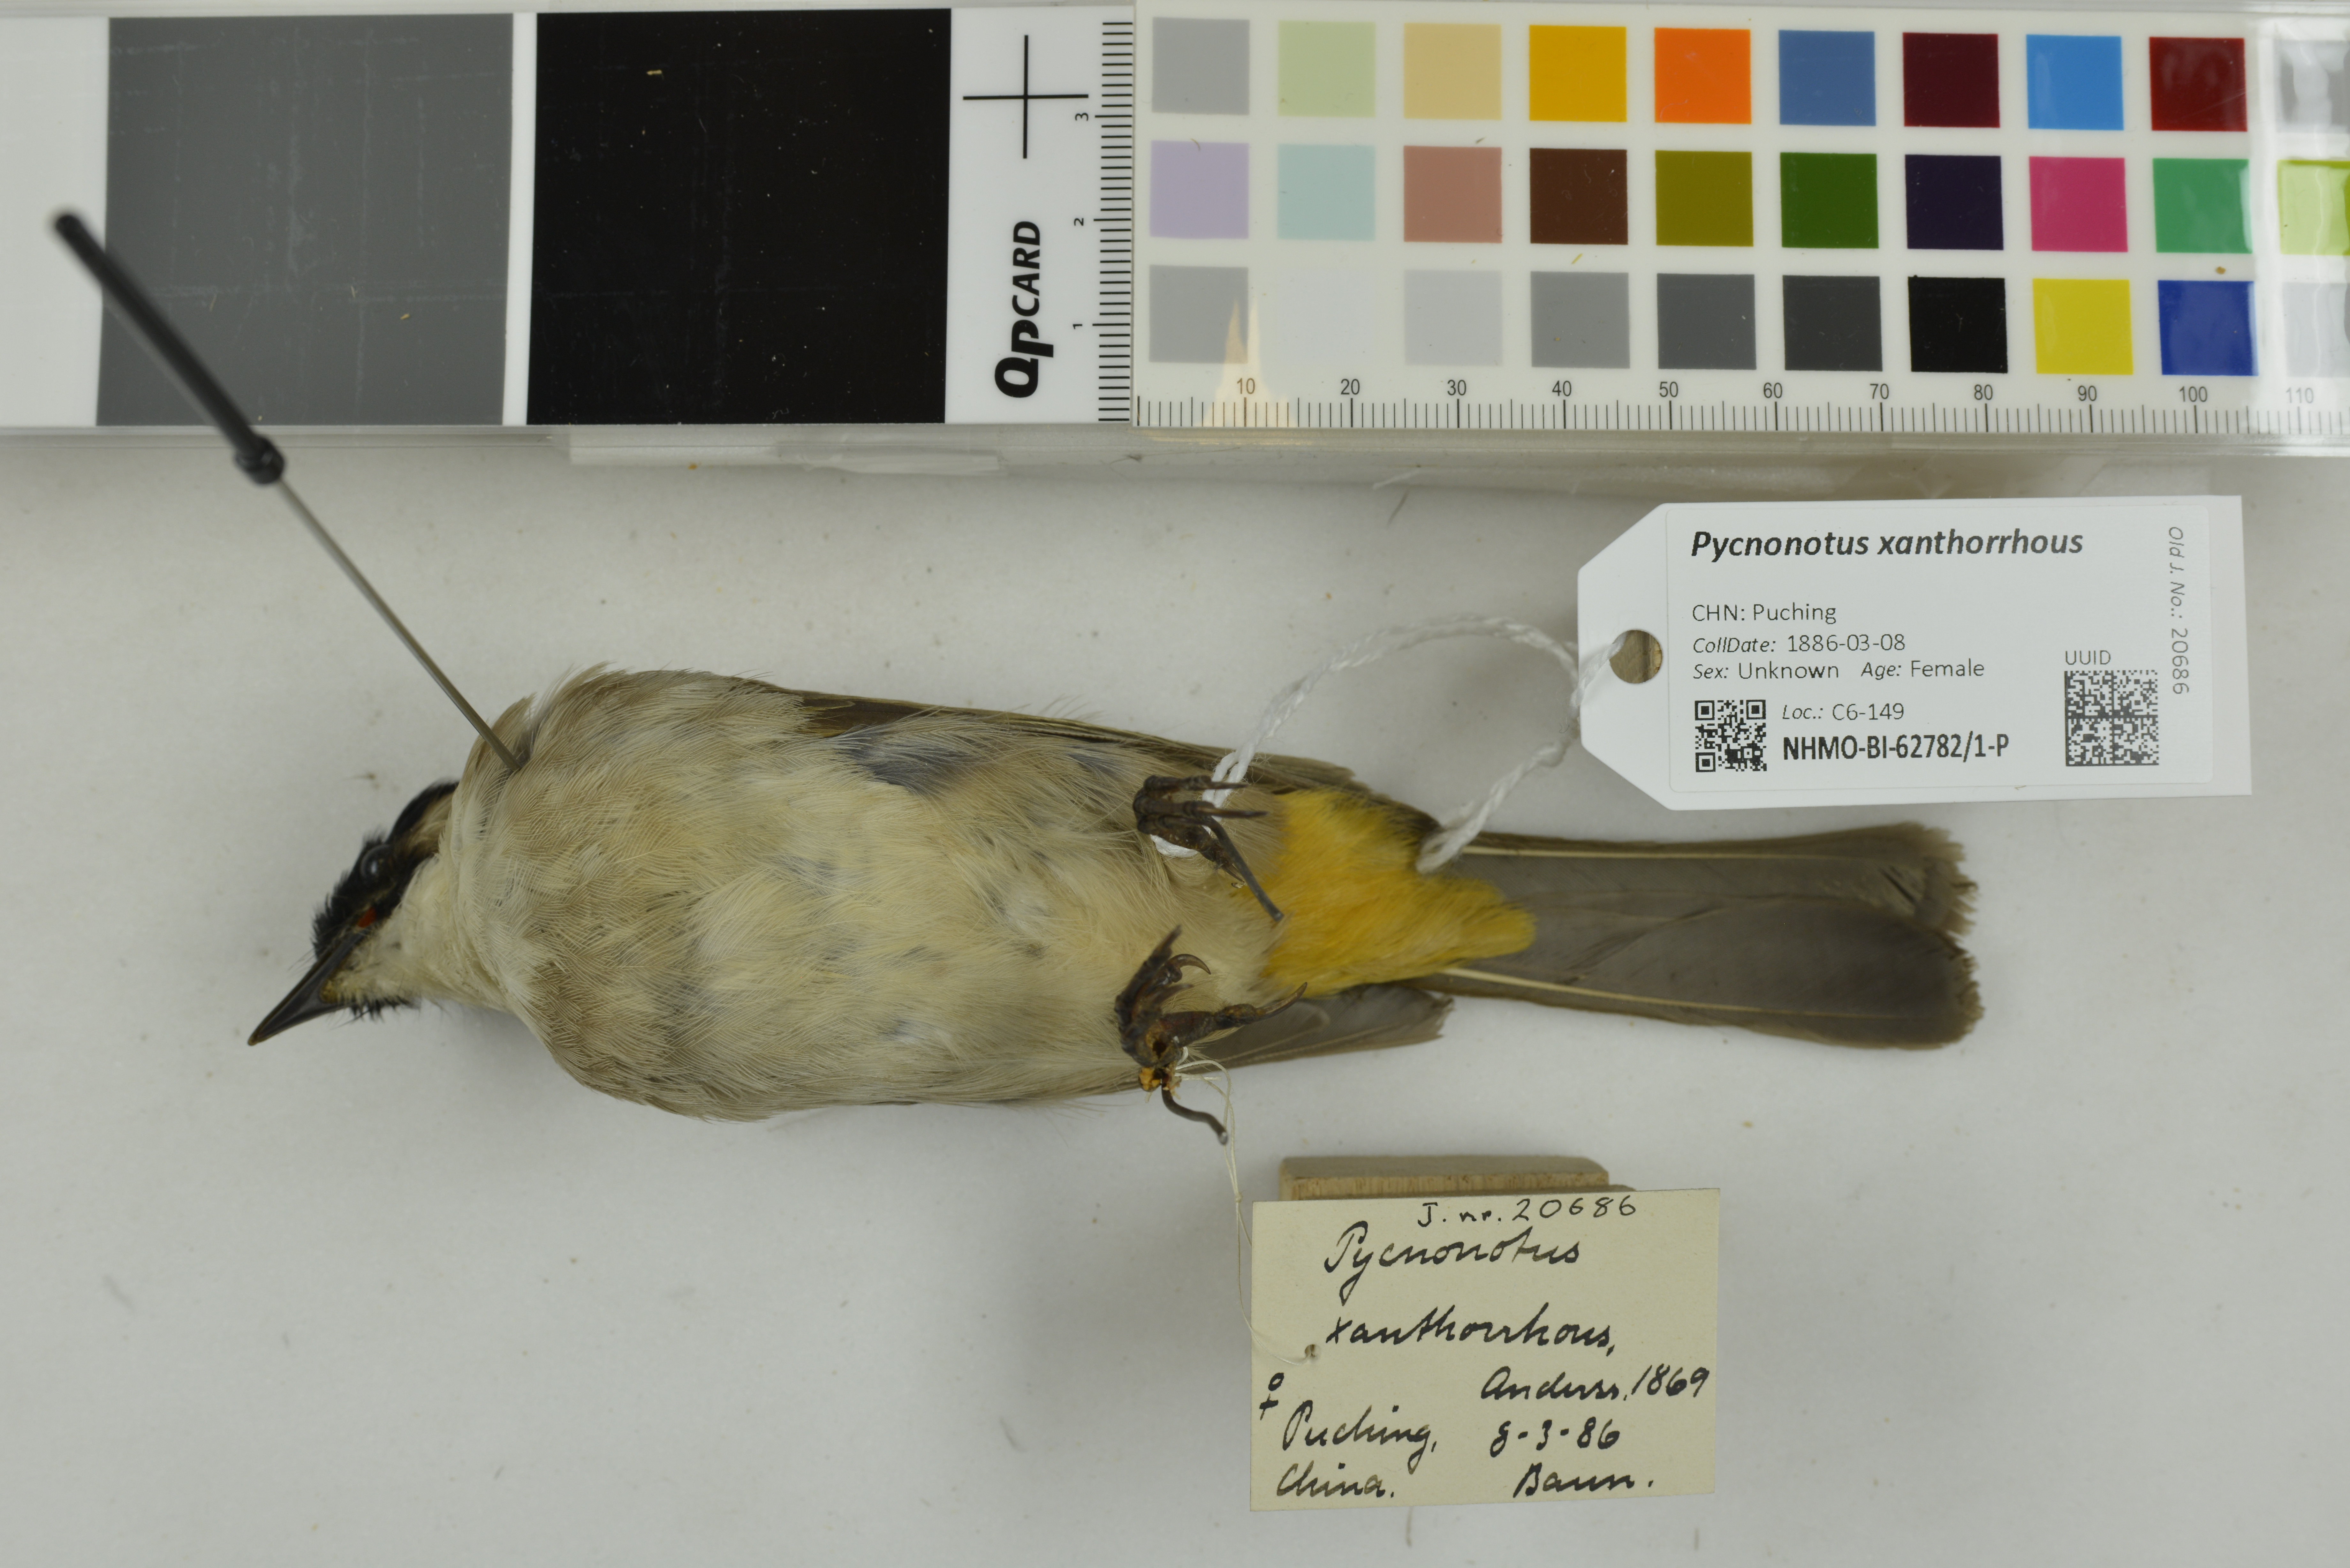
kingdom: Animalia
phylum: Chordata
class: Aves
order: Passeriformes
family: Pycnonotidae
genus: Pycnonotus
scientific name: Pycnonotus xanthorrhous
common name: Brown-breasted bulbul
